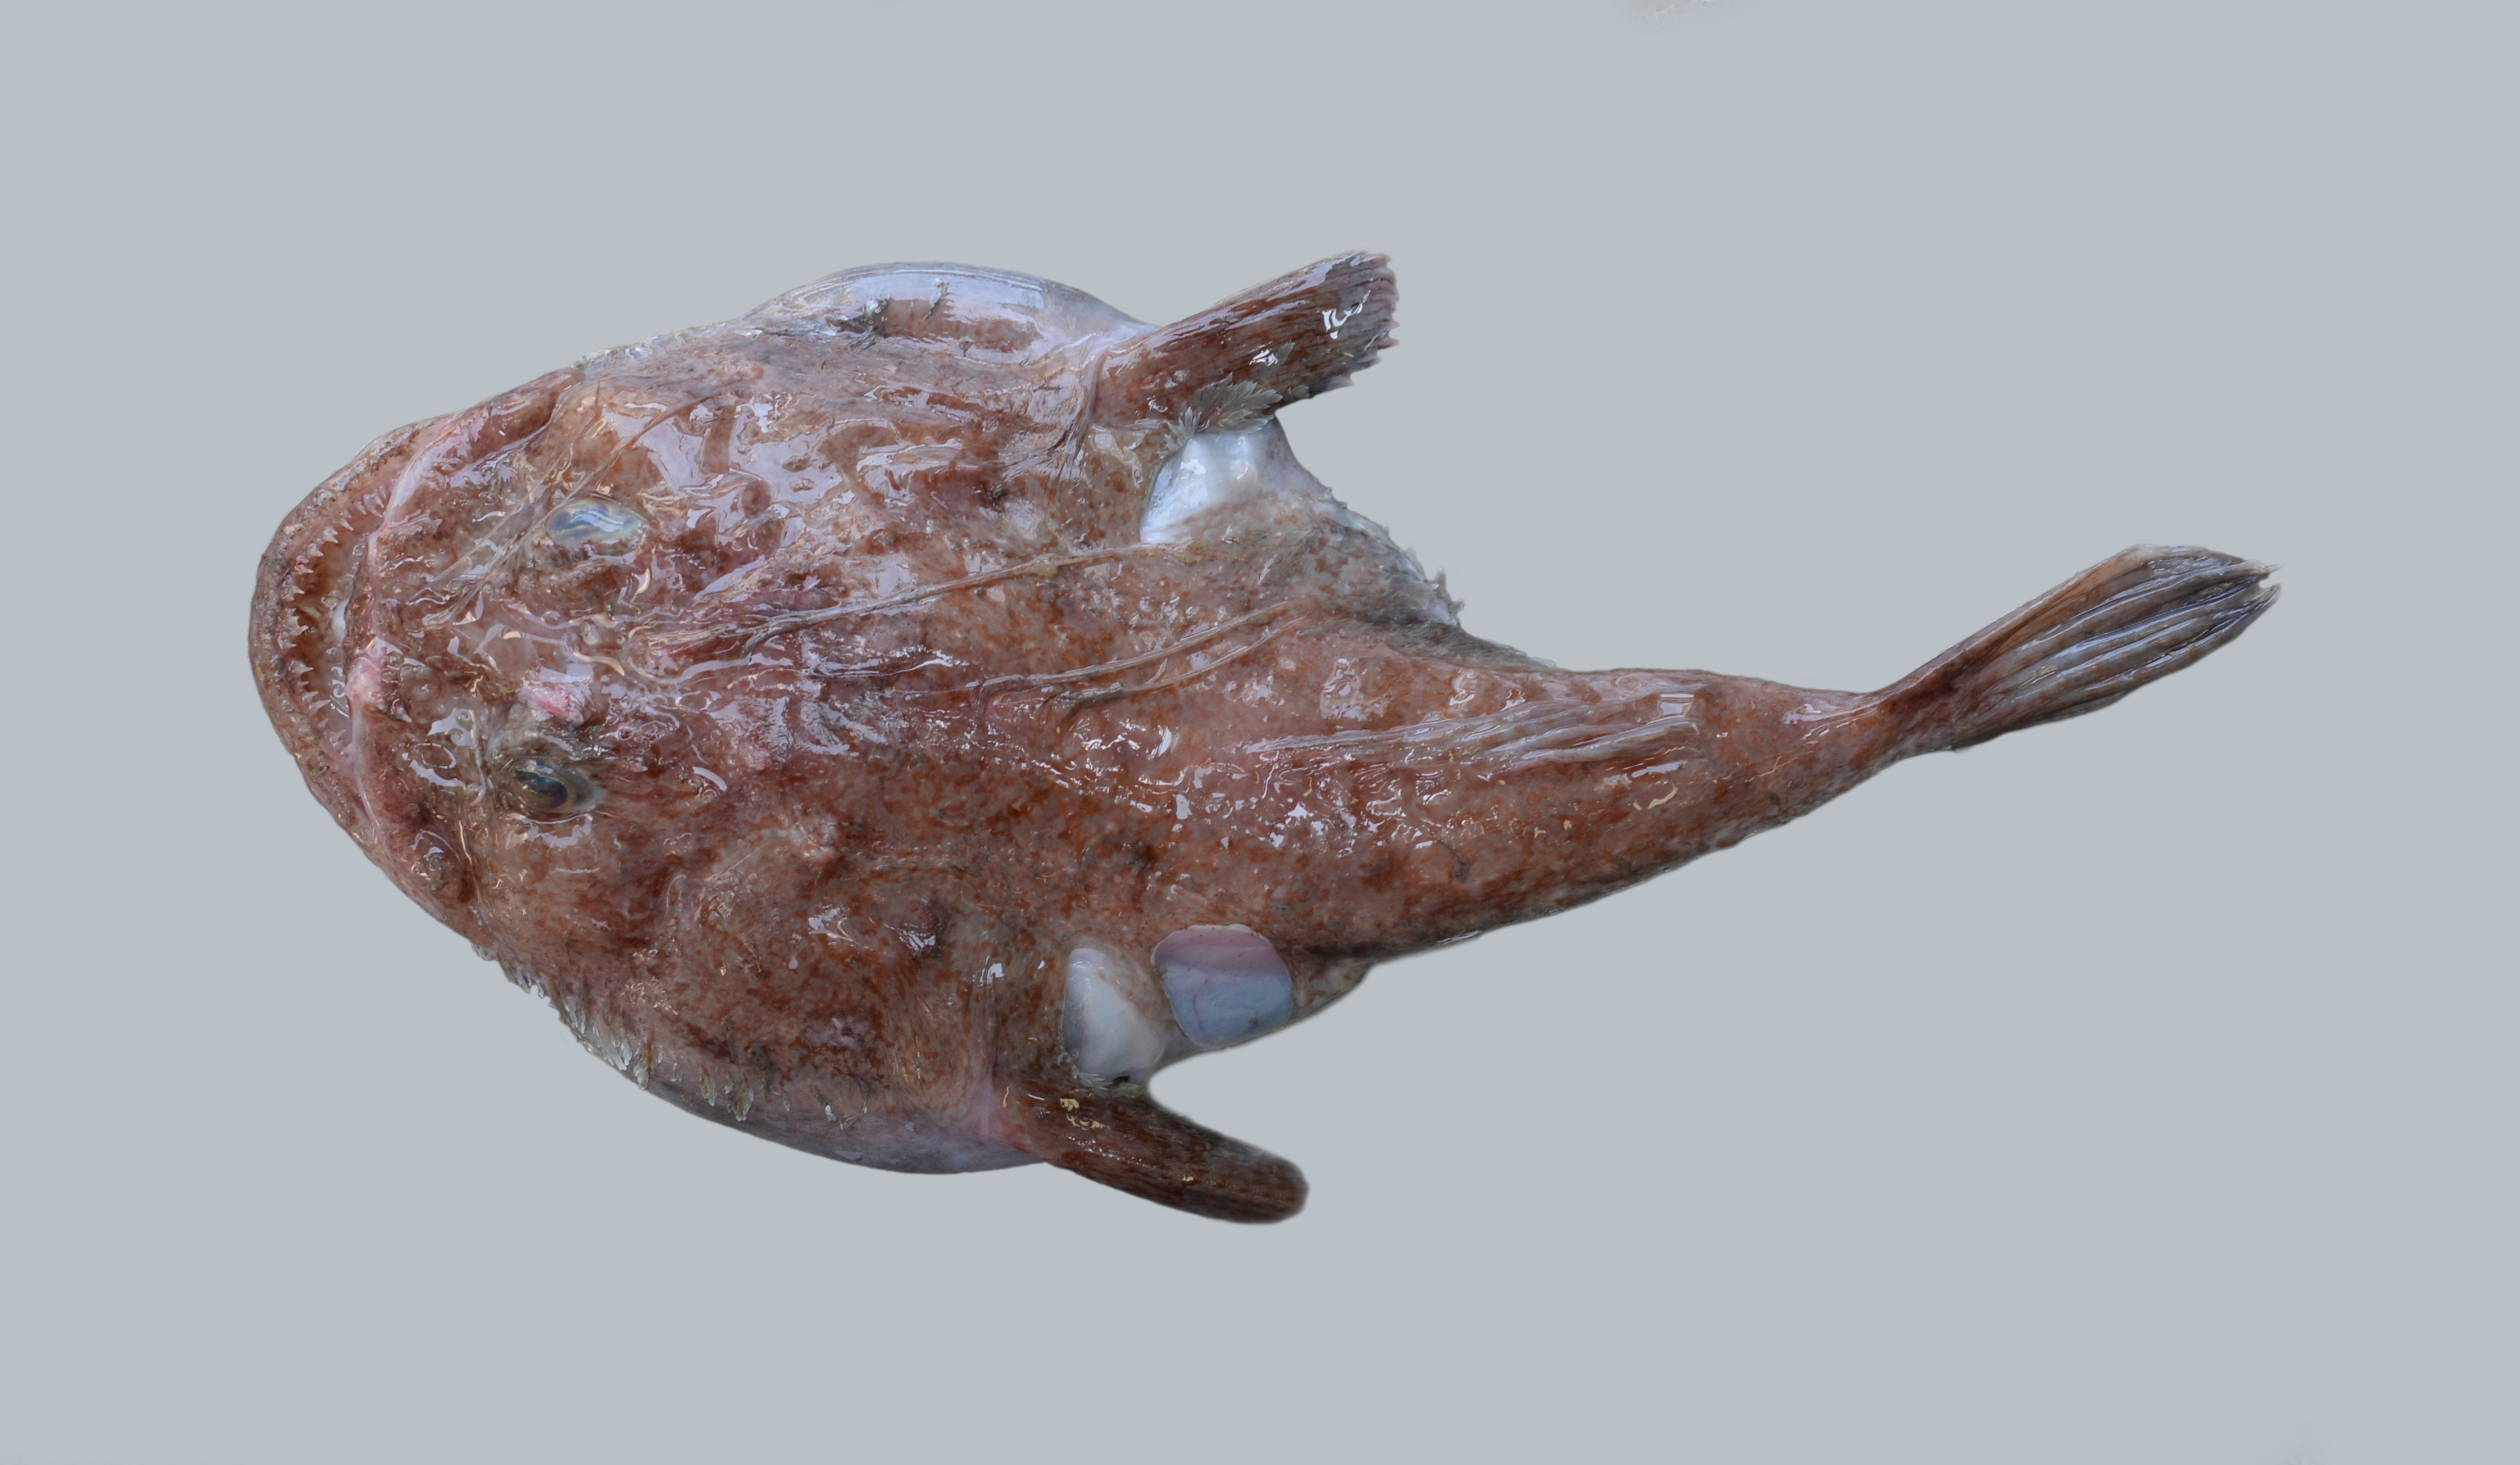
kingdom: Animalia
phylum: Chordata
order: Lophiiformes
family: Lophiidae
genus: Lophiomus
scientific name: Lophiomus setigerus
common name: Blackmouth angler
